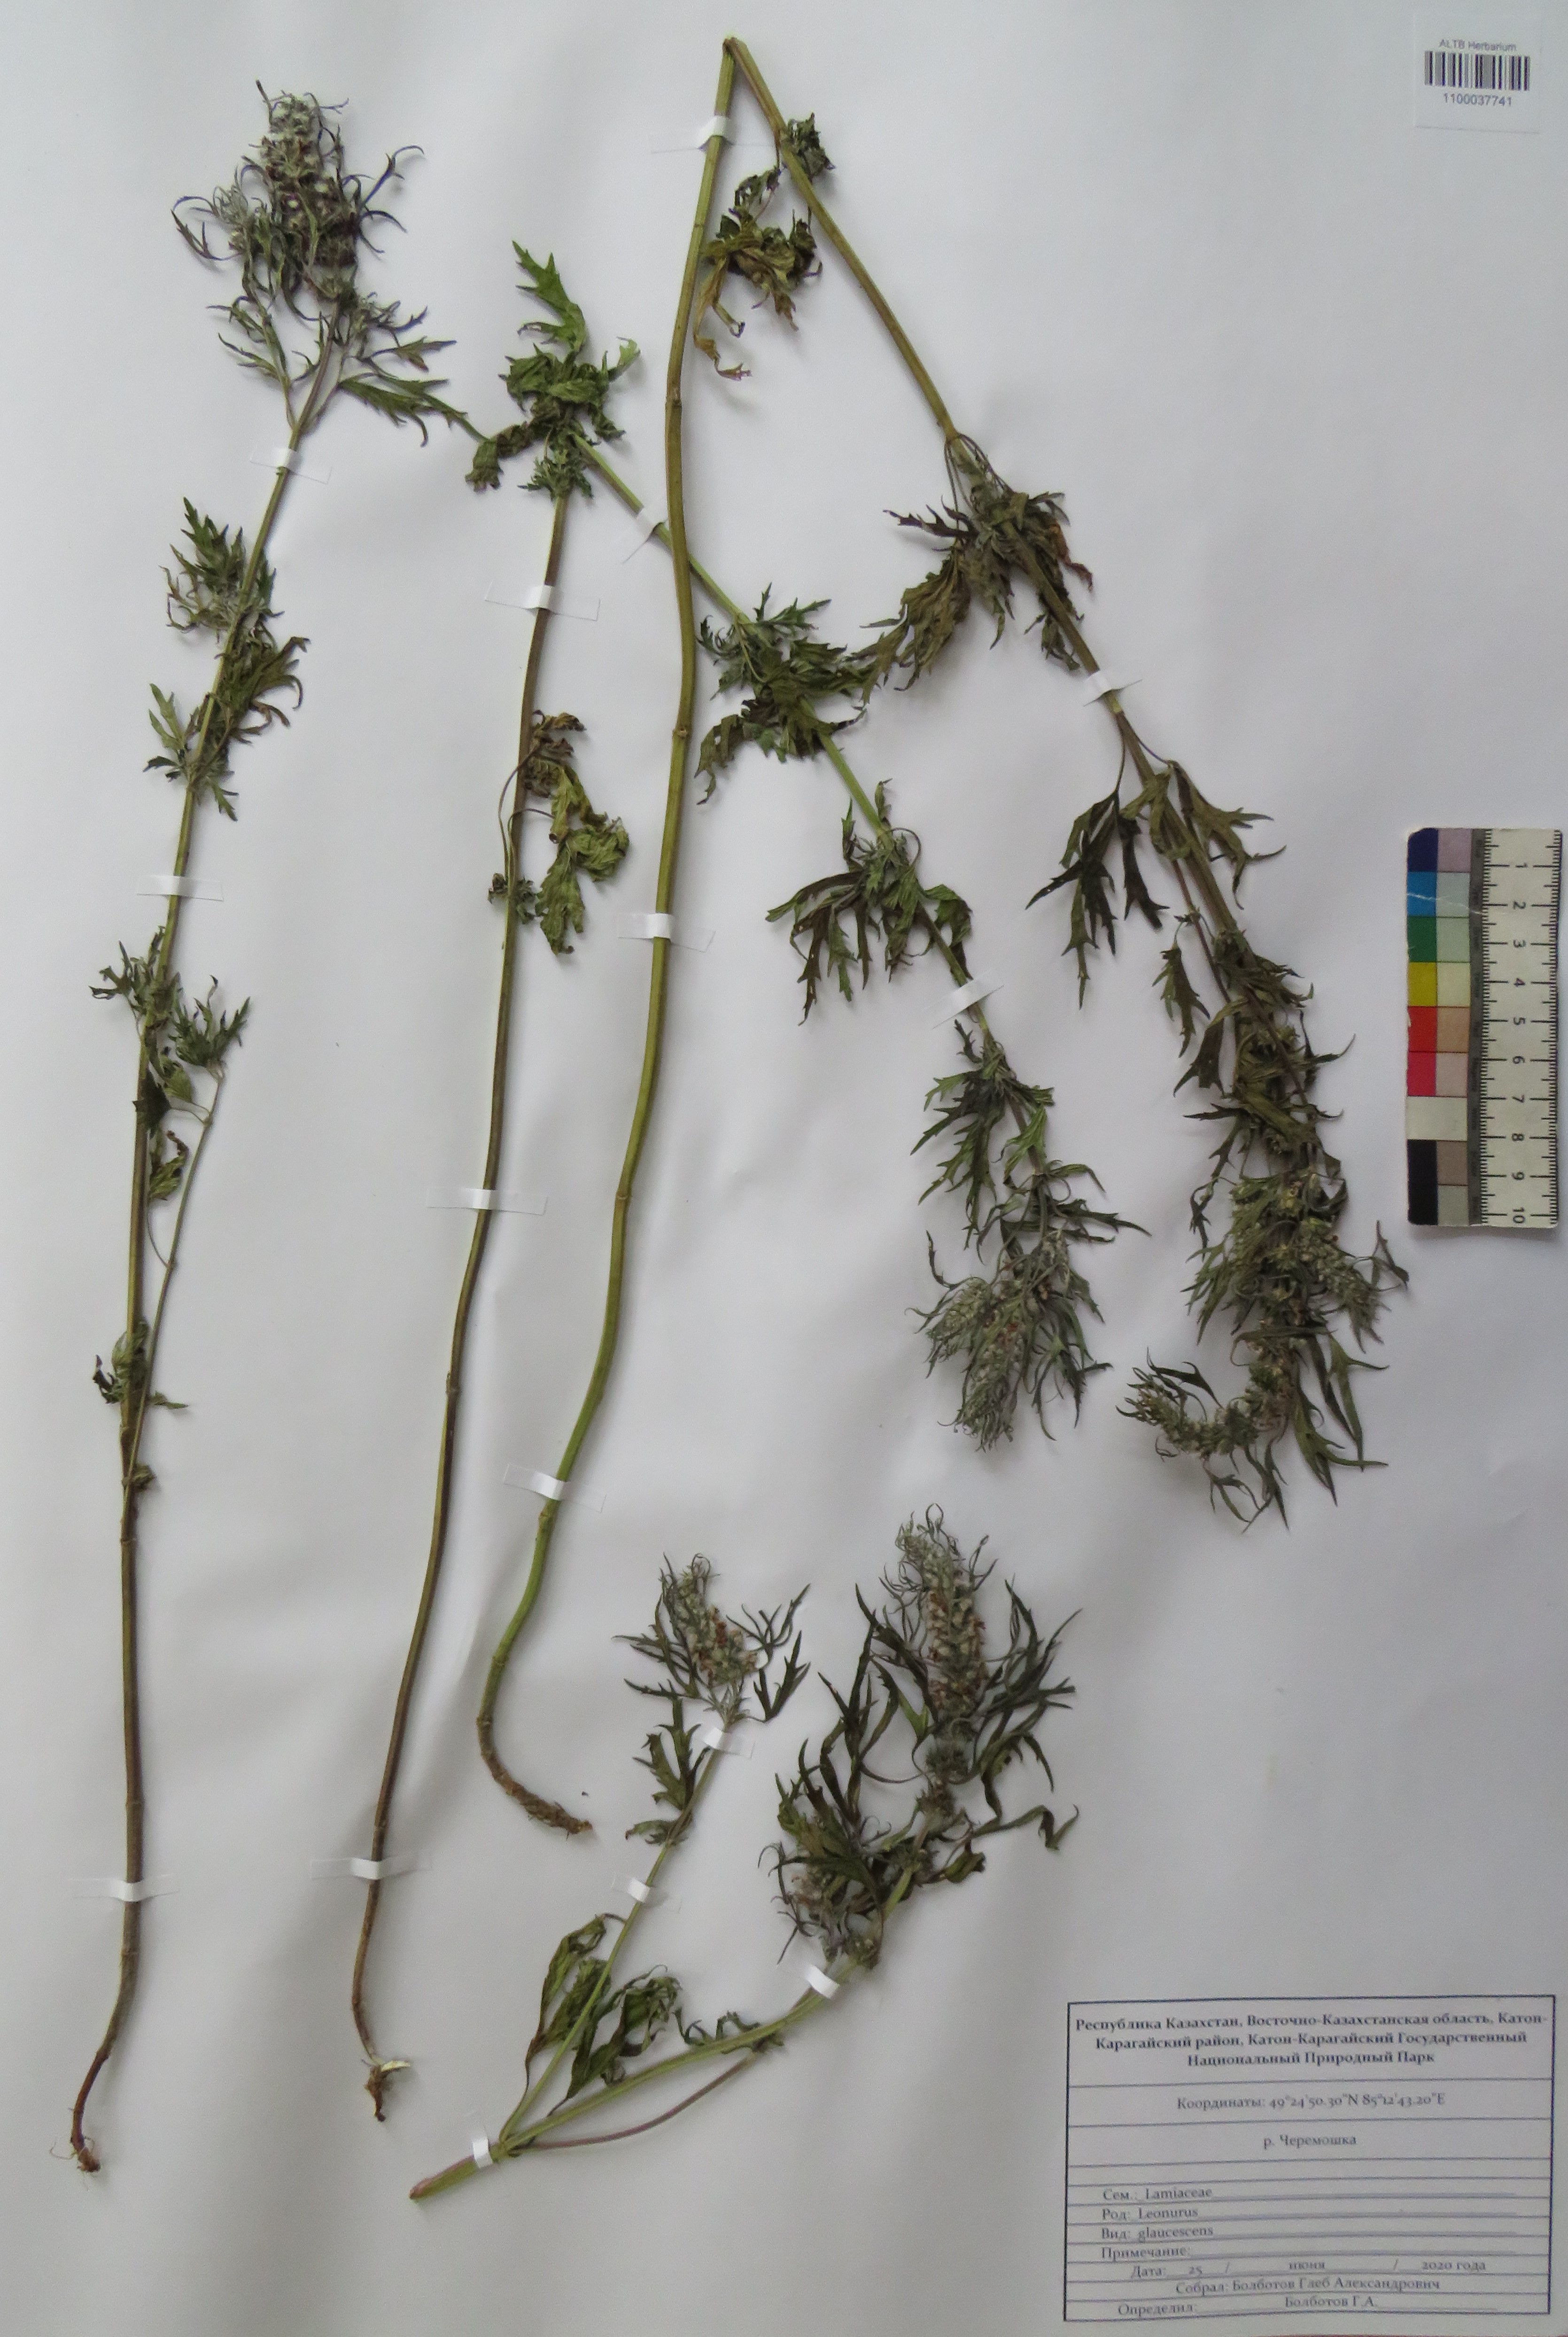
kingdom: Plantae
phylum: Tracheophyta
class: Magnoliopsida
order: Lamiales
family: Lamiaceae
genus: Leonurus
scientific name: Leonurus glaucescens
